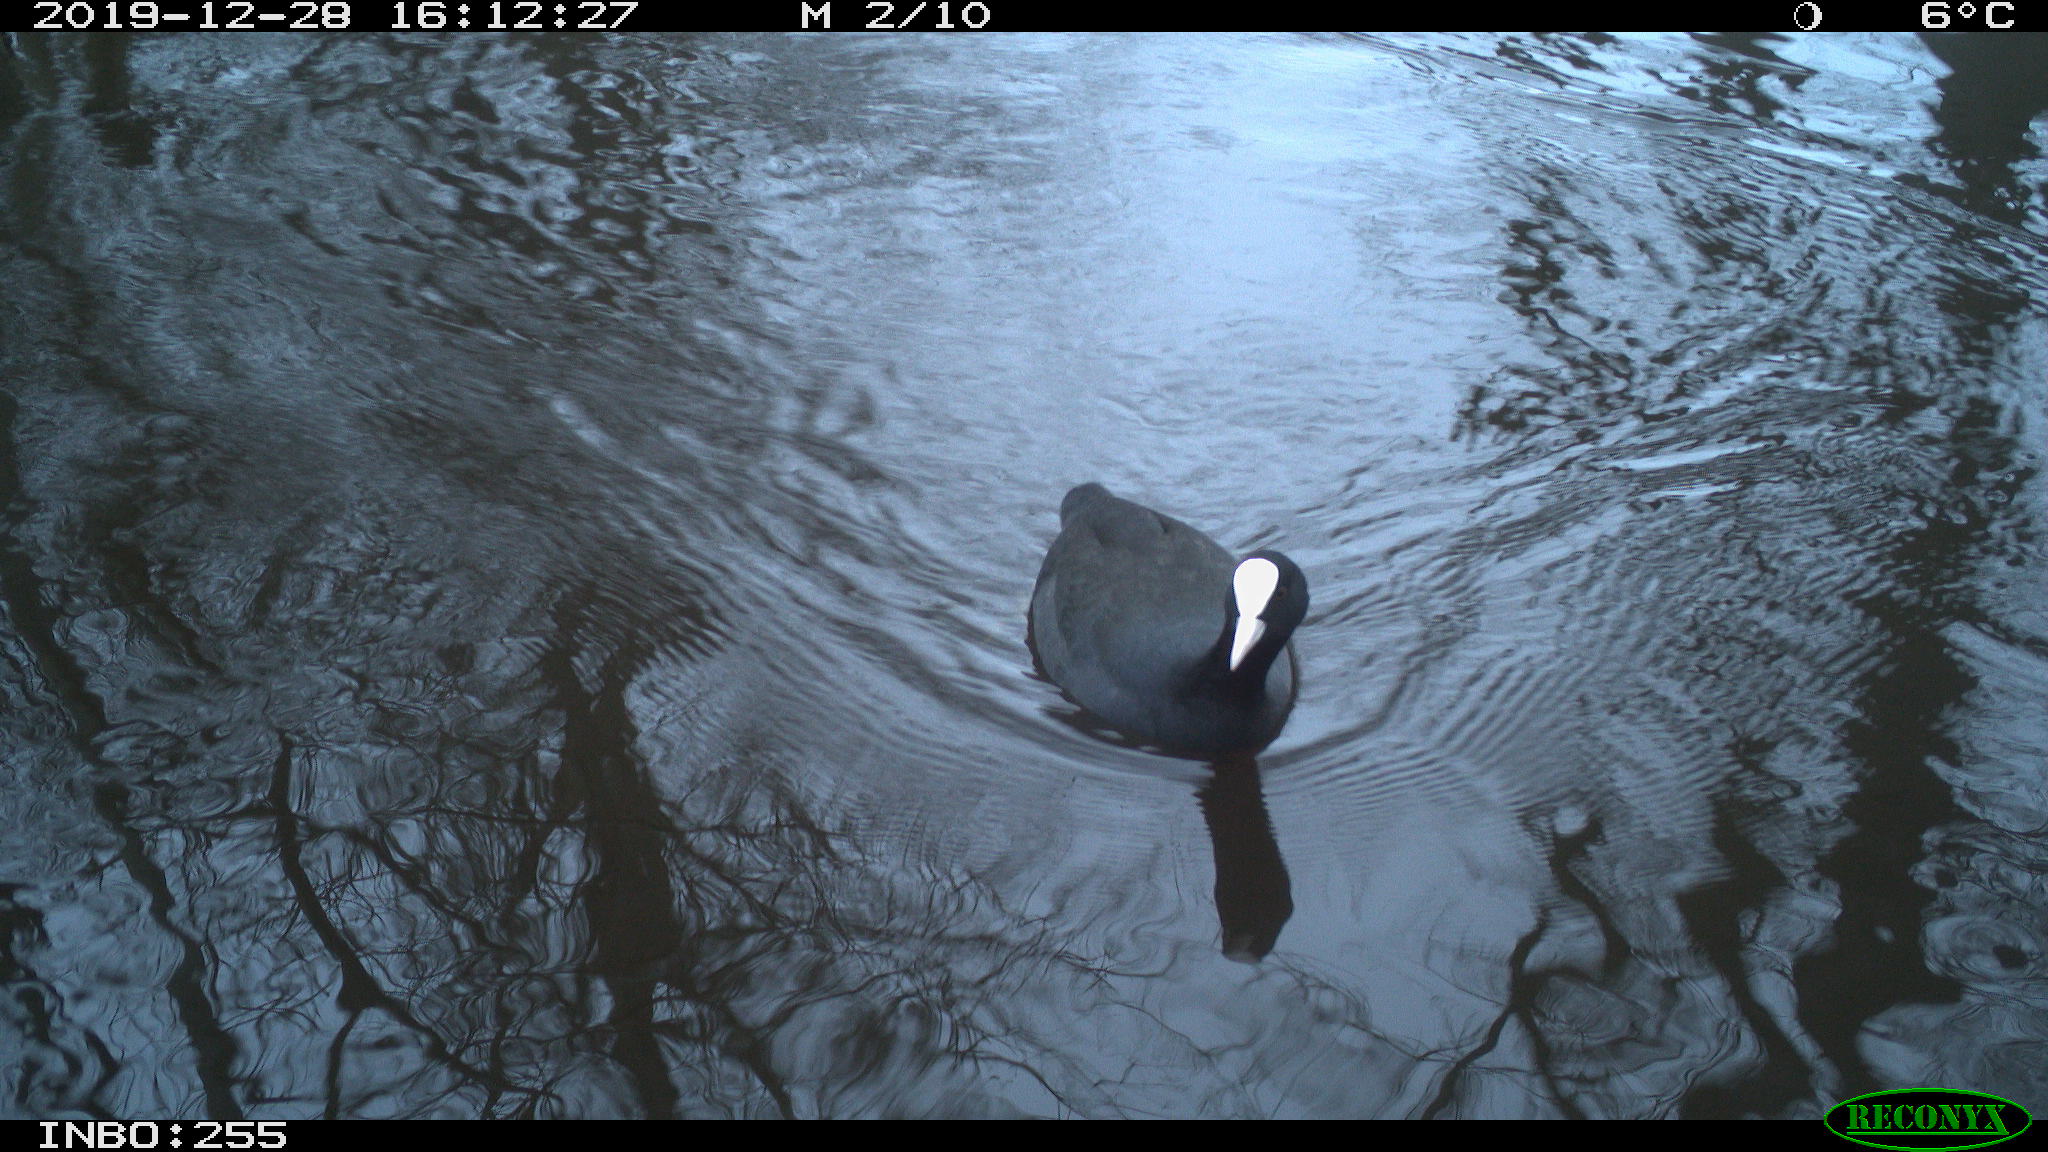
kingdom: Animalia
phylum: Chordata
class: Aves
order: Gruiformes
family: Rallidae
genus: Fulica
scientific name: Fulica atra
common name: Eurasian coot
